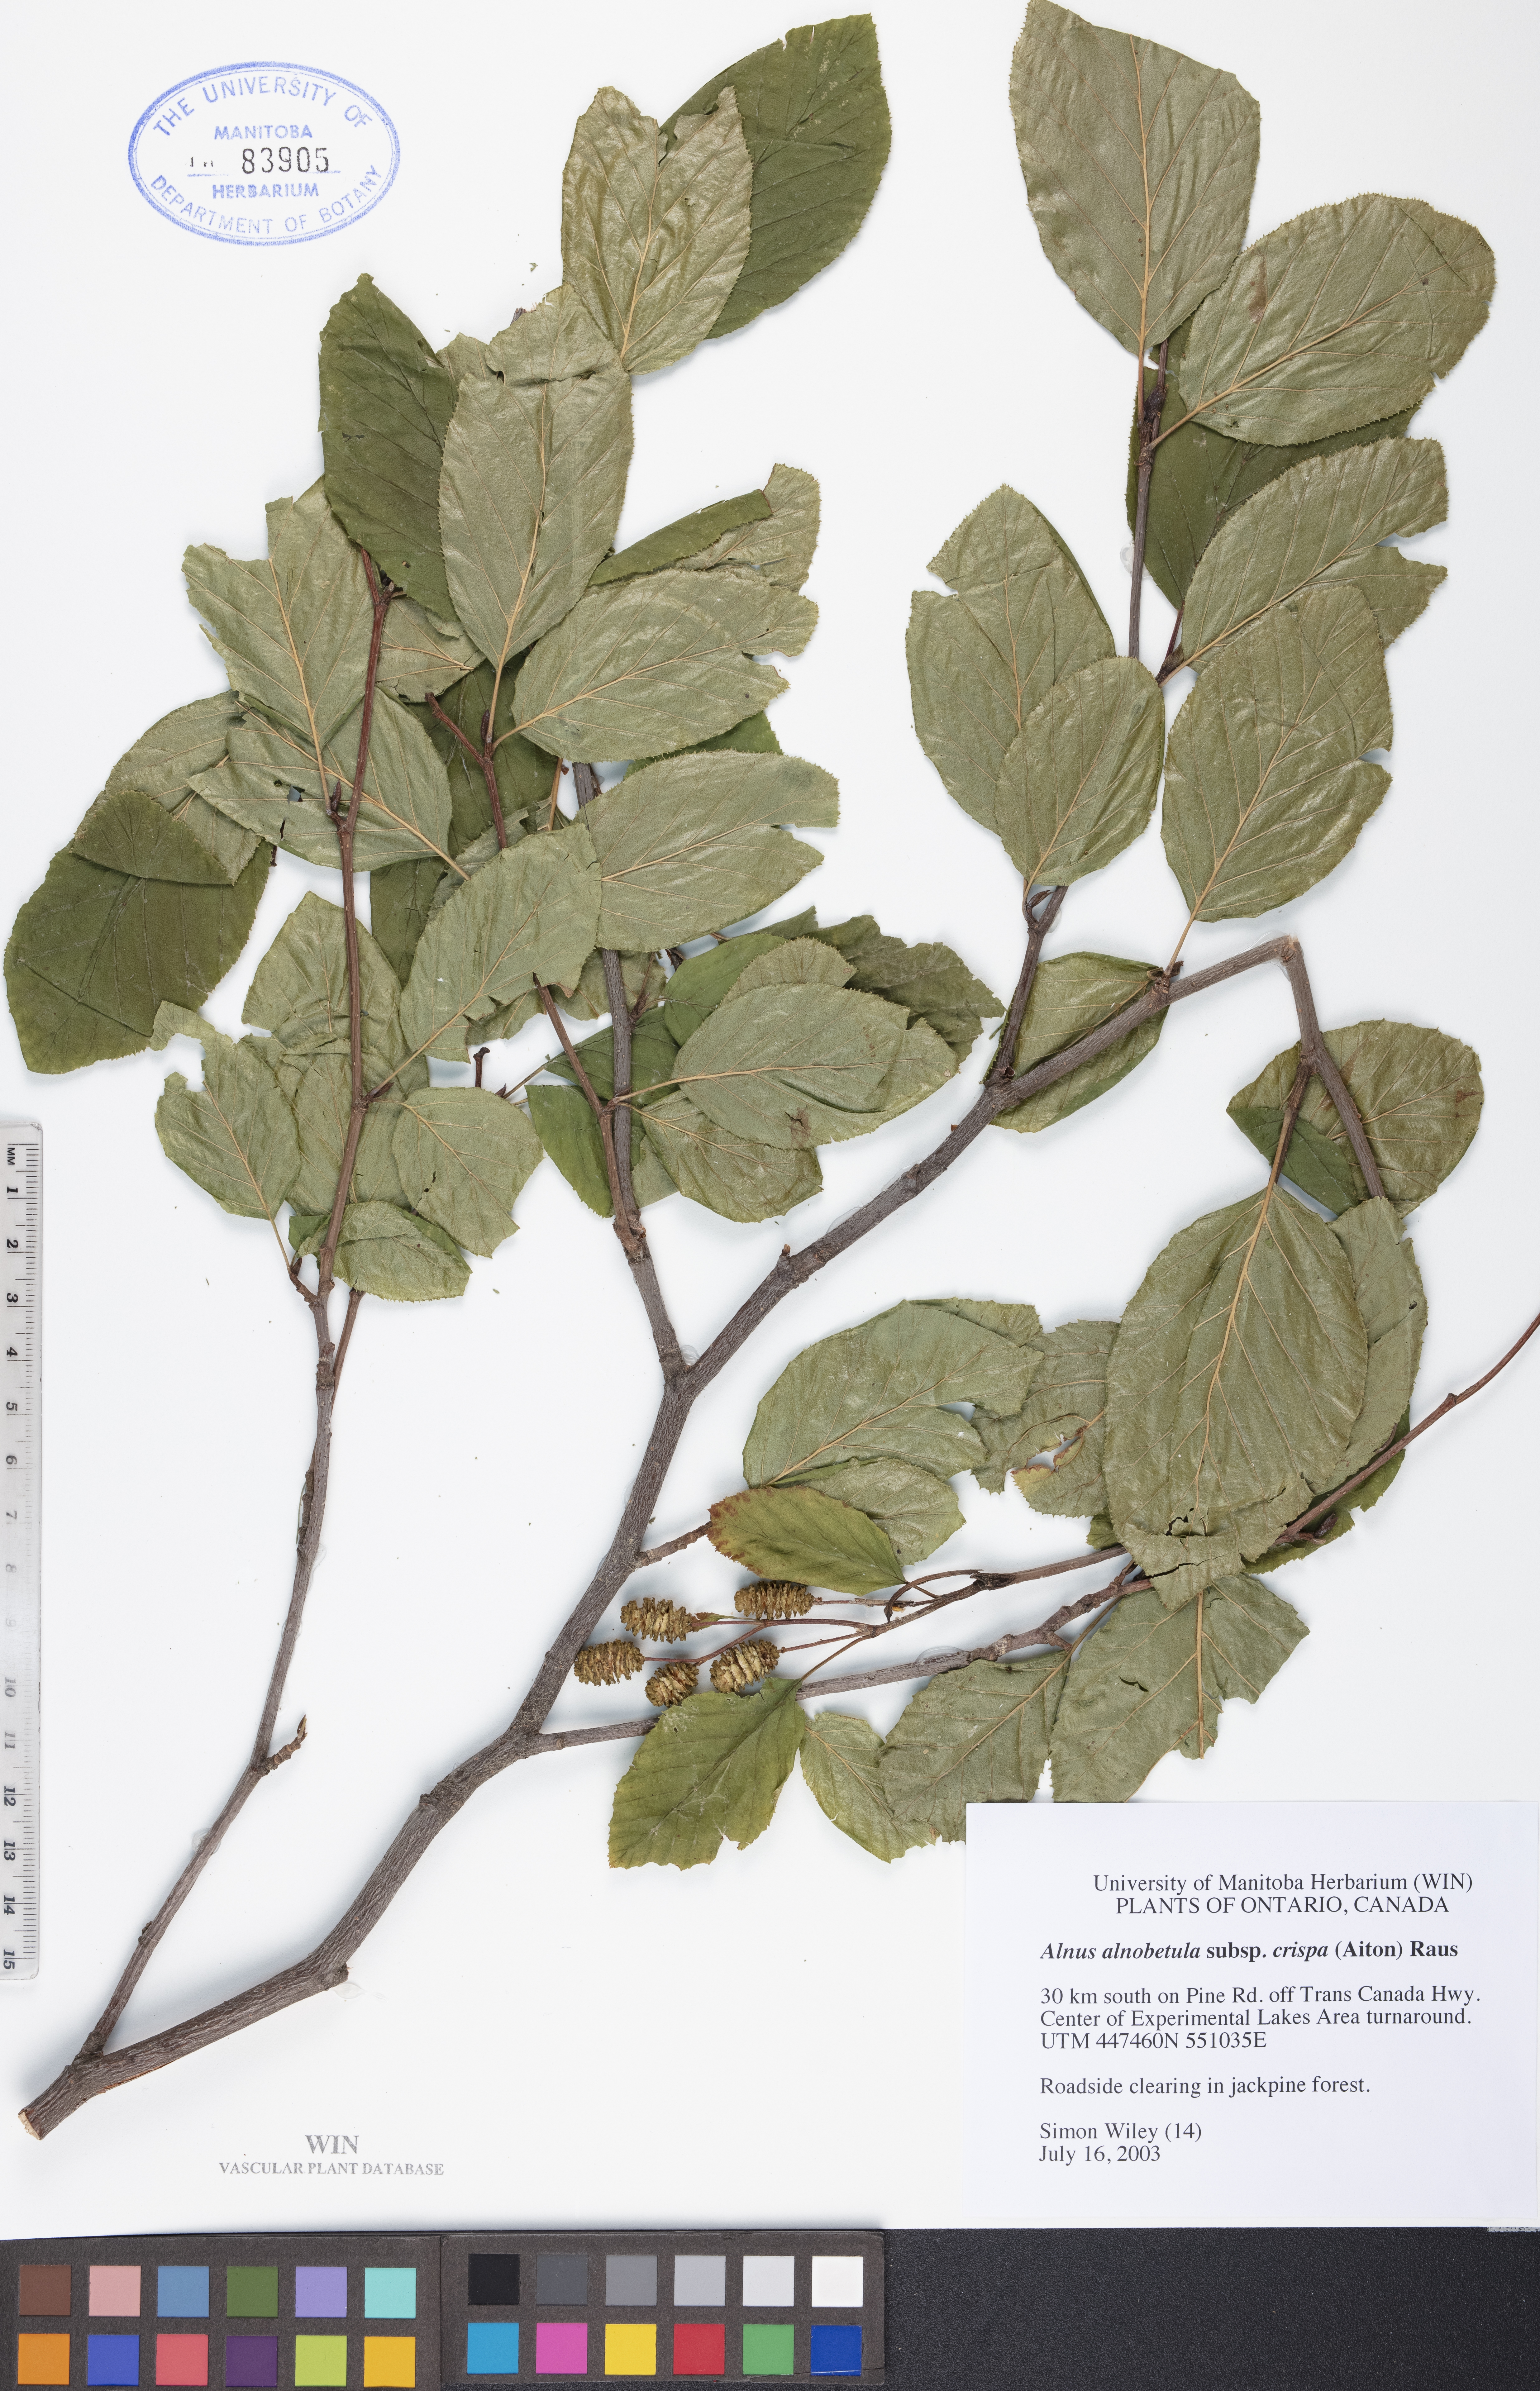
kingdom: Plantae
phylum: Tracheophyta
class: Magnoliopsida
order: Fagales
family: Betulaceae
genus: Alnus
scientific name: Alnus alnobetula
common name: Green alder
